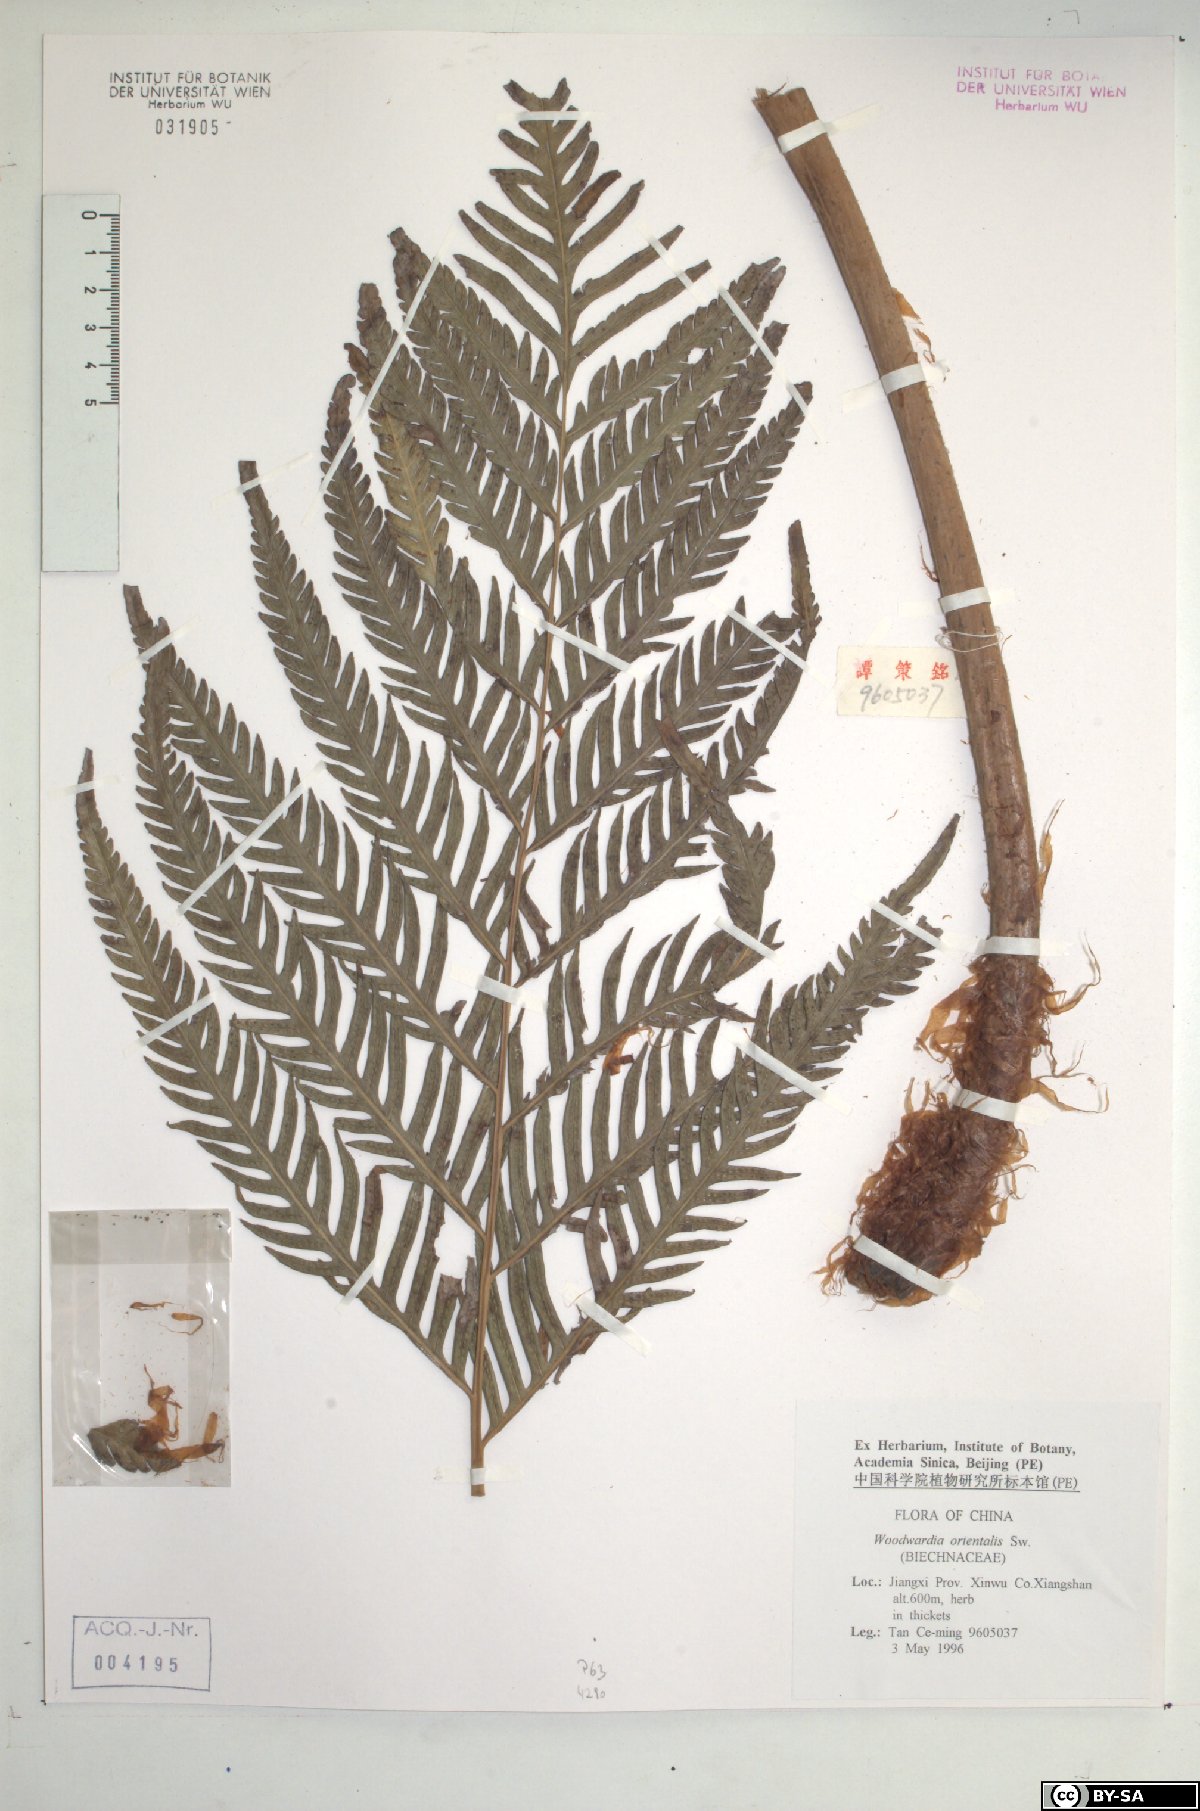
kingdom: Plantae
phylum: Tracheophyta
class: Polypodiopsida
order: Polypodiales
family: Blechnaceae
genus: Woodwardia
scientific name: Woodwardia orientalis
